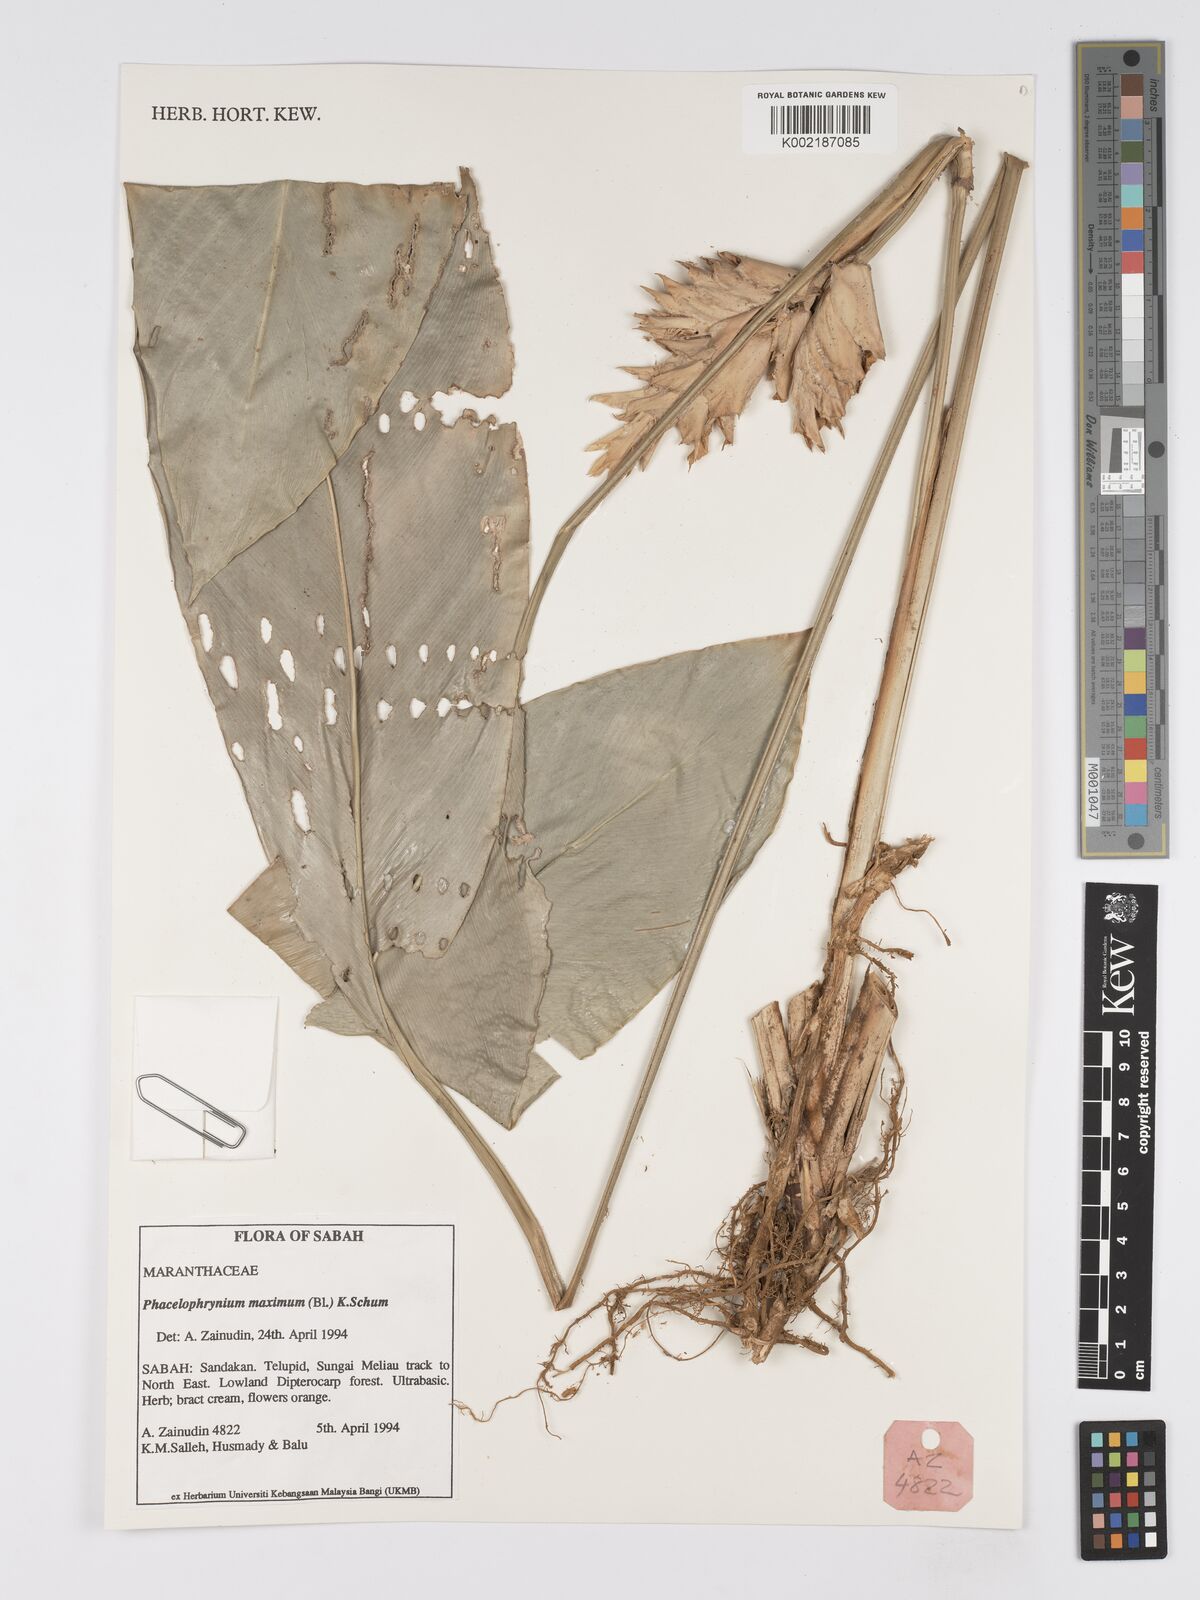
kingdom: Plantae
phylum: Tracheophyta
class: Liliopsida
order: Zingiberales
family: Marantaceae
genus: Phrynium
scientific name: Phrynium maximum
